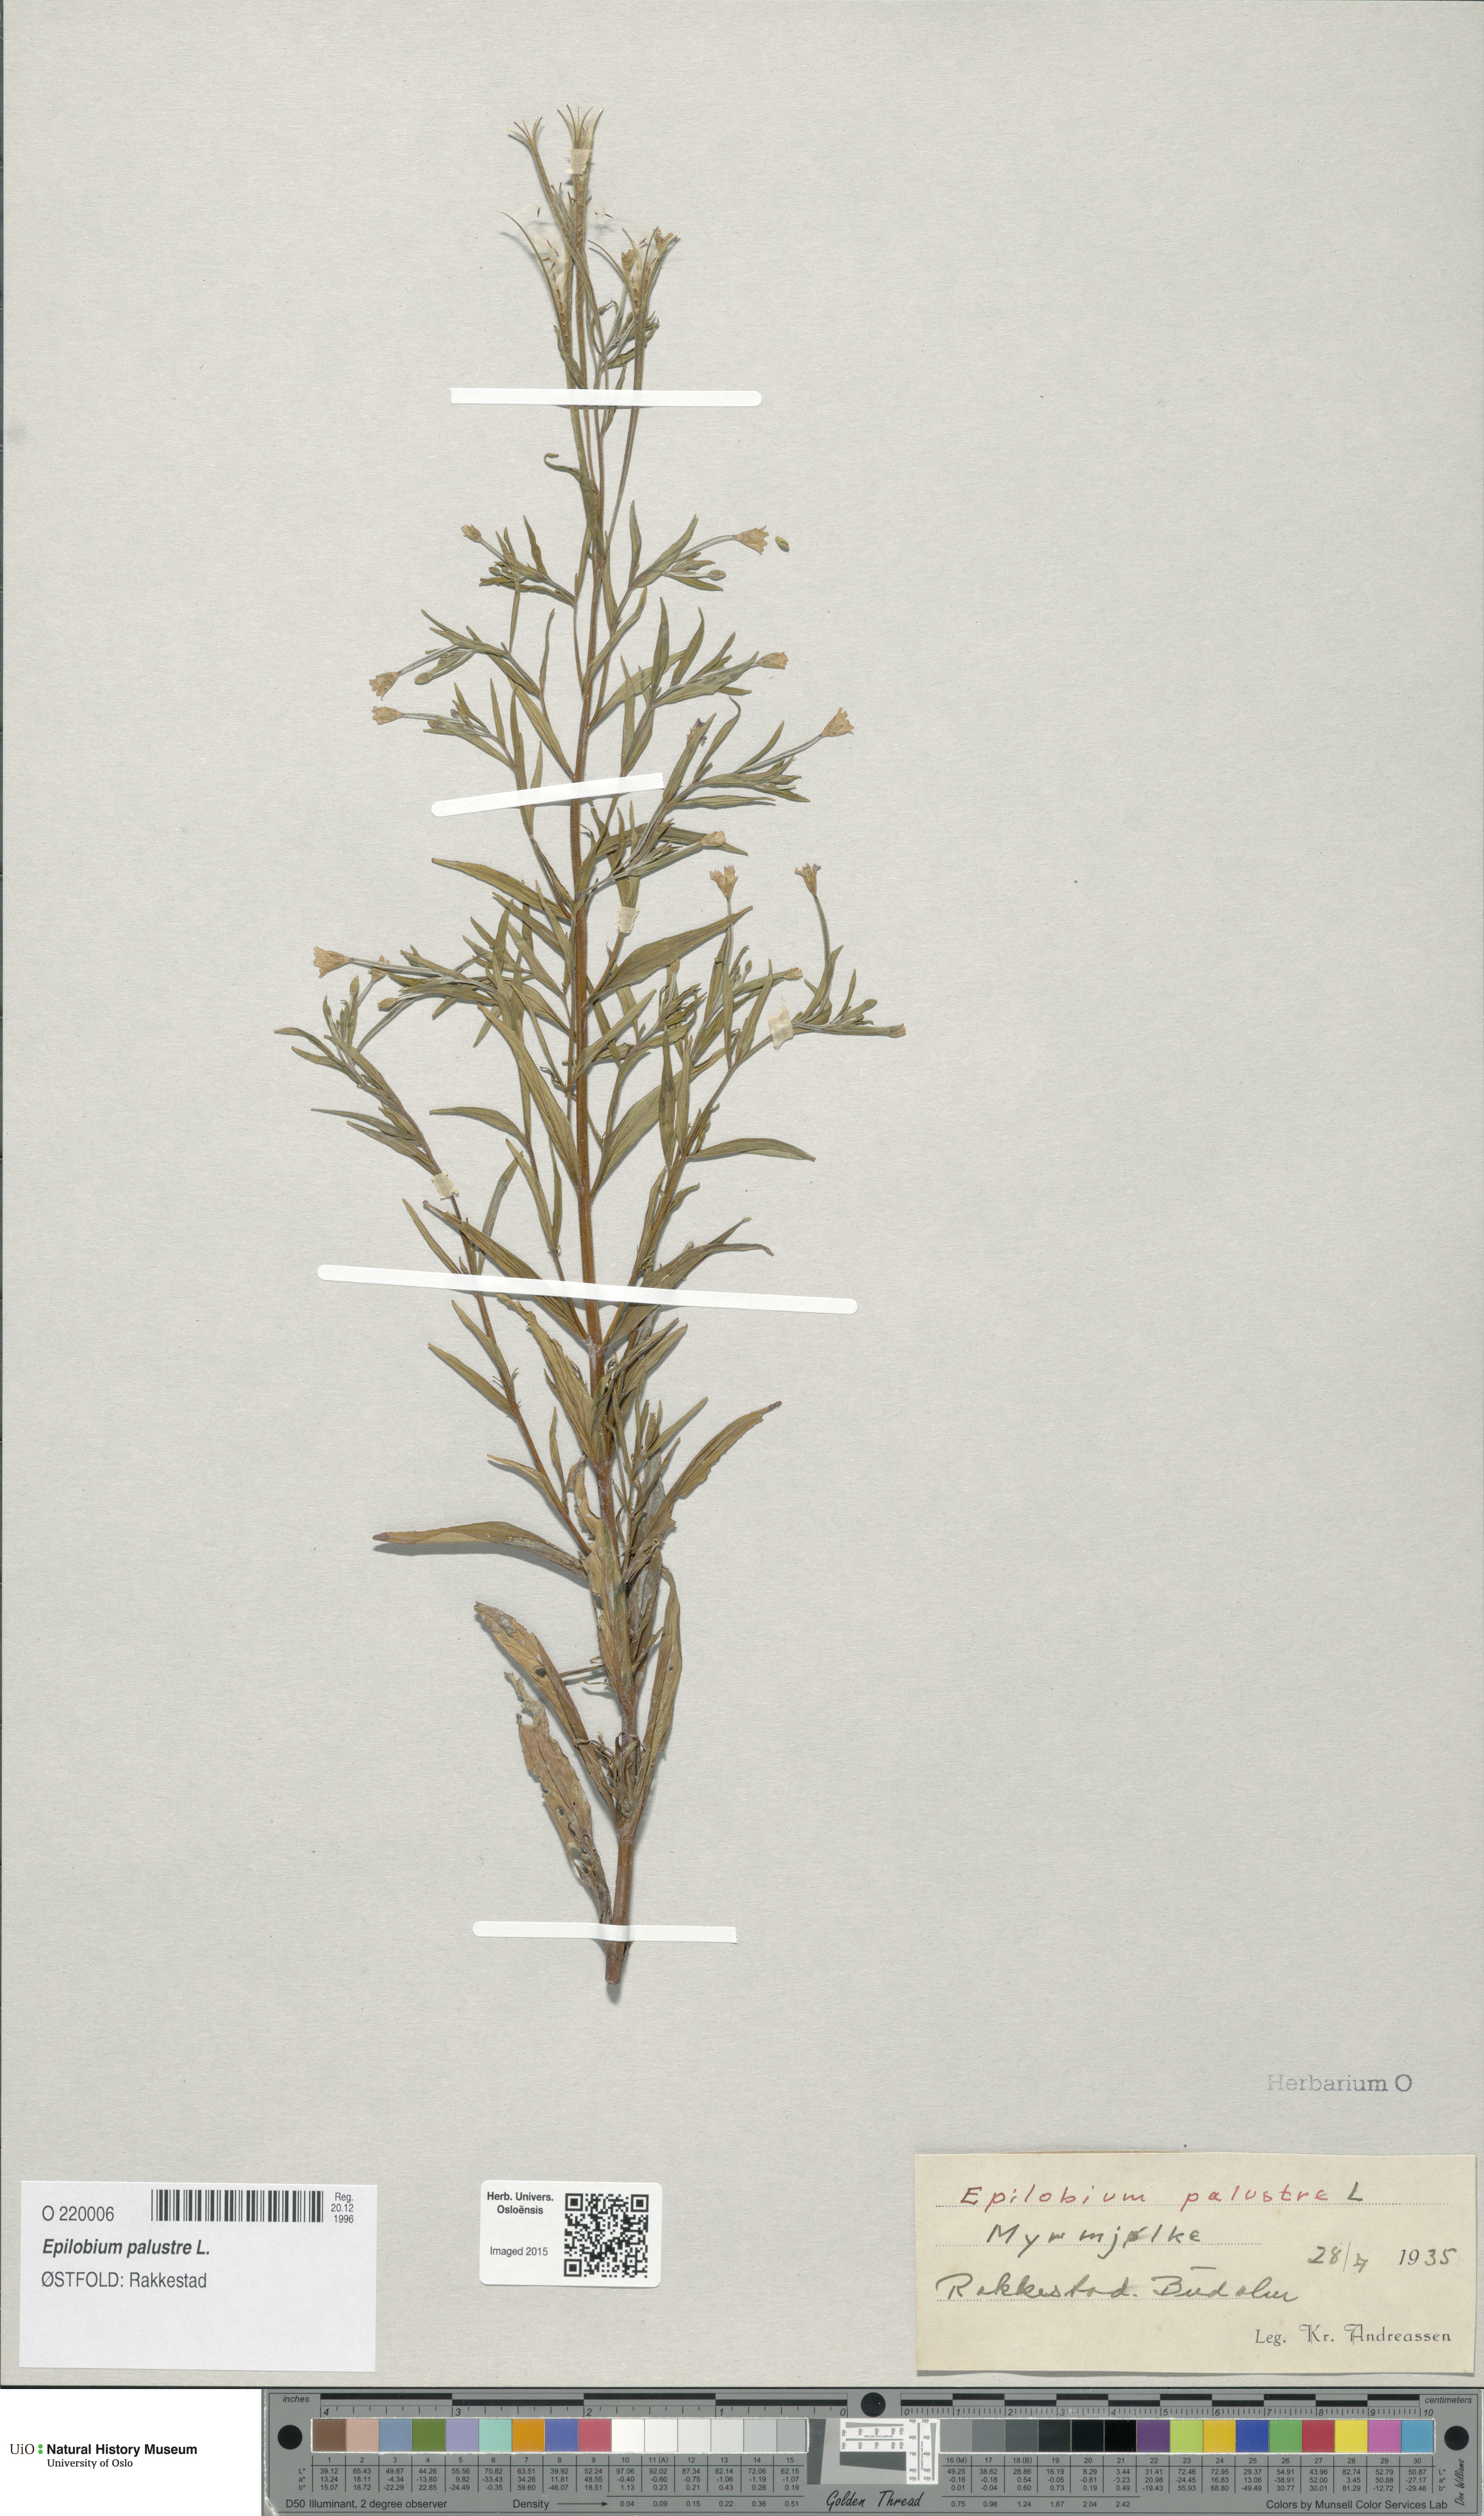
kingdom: Plantae
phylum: Tracheophyta
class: Magnoliopsida
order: Myrtales
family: Onagraceae
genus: Epilobium
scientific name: Epilobium palustre
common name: Marsh willowherb
